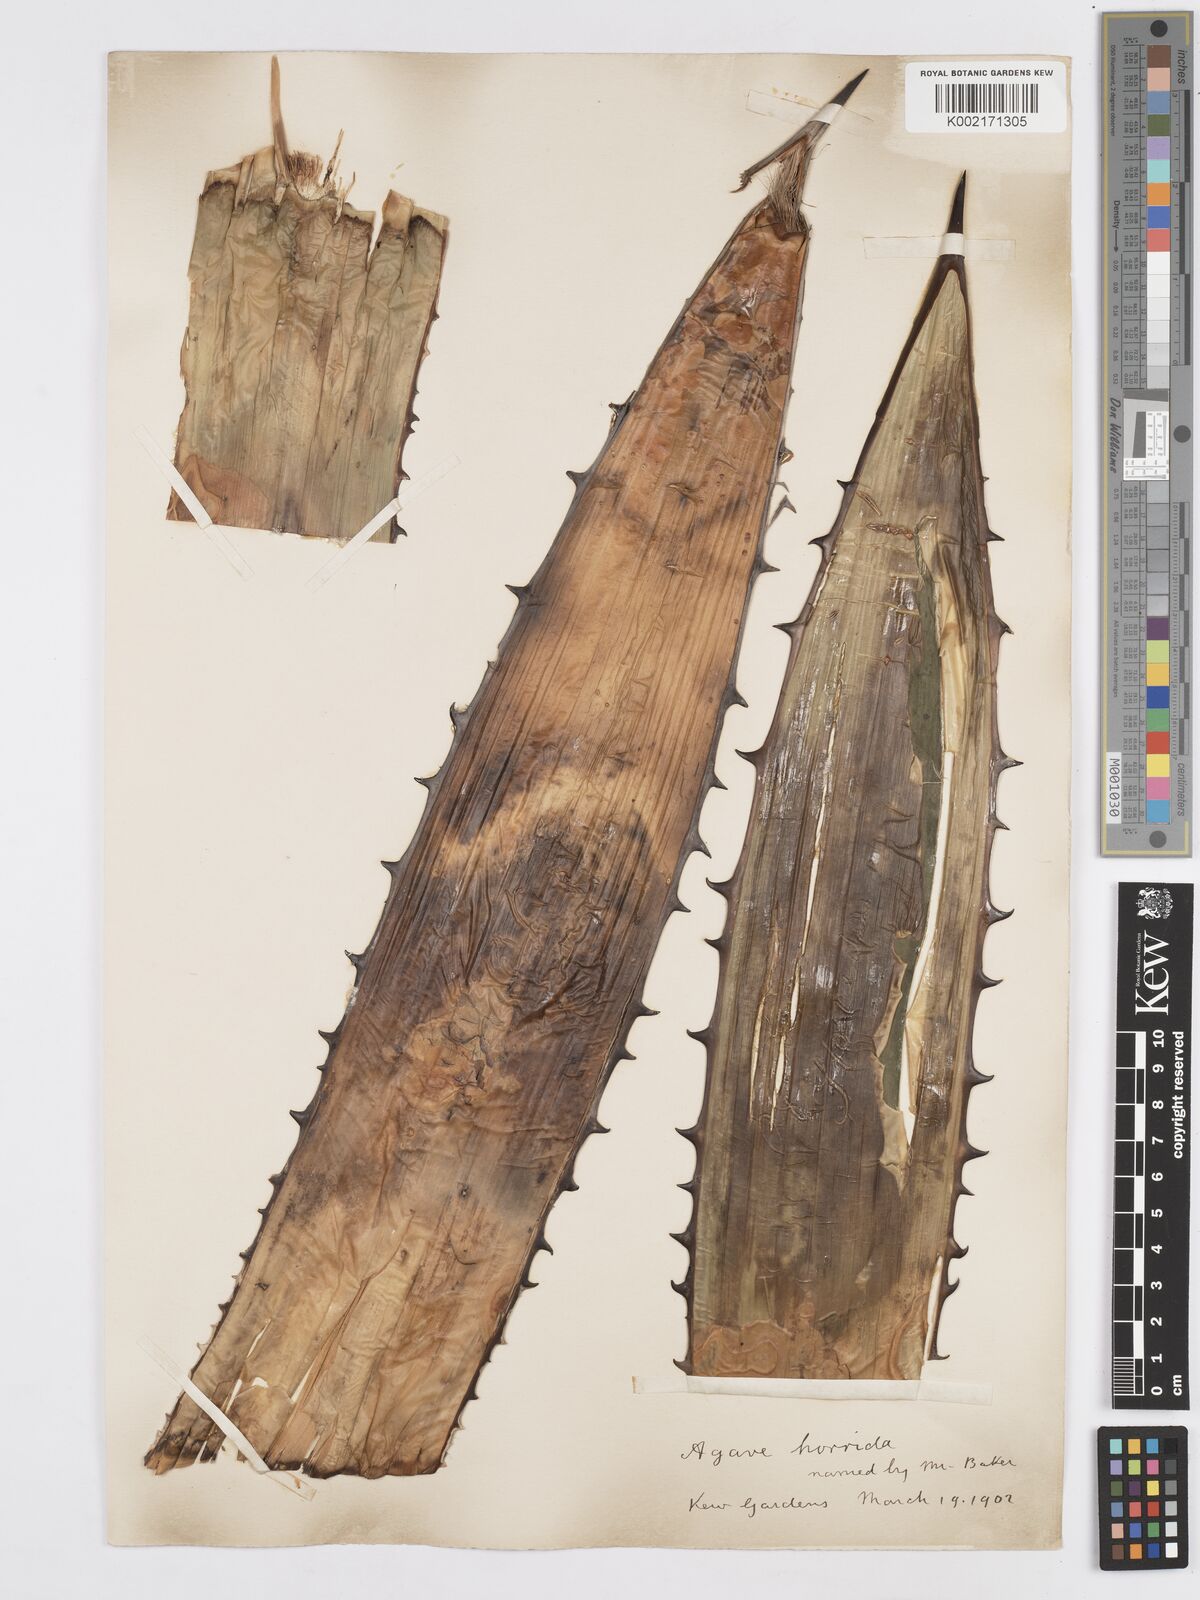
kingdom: Plantae
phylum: Tracheophyta
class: Liliopsida
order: Asparagales
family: Asparagaceae
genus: Agave
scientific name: Agave horrida
